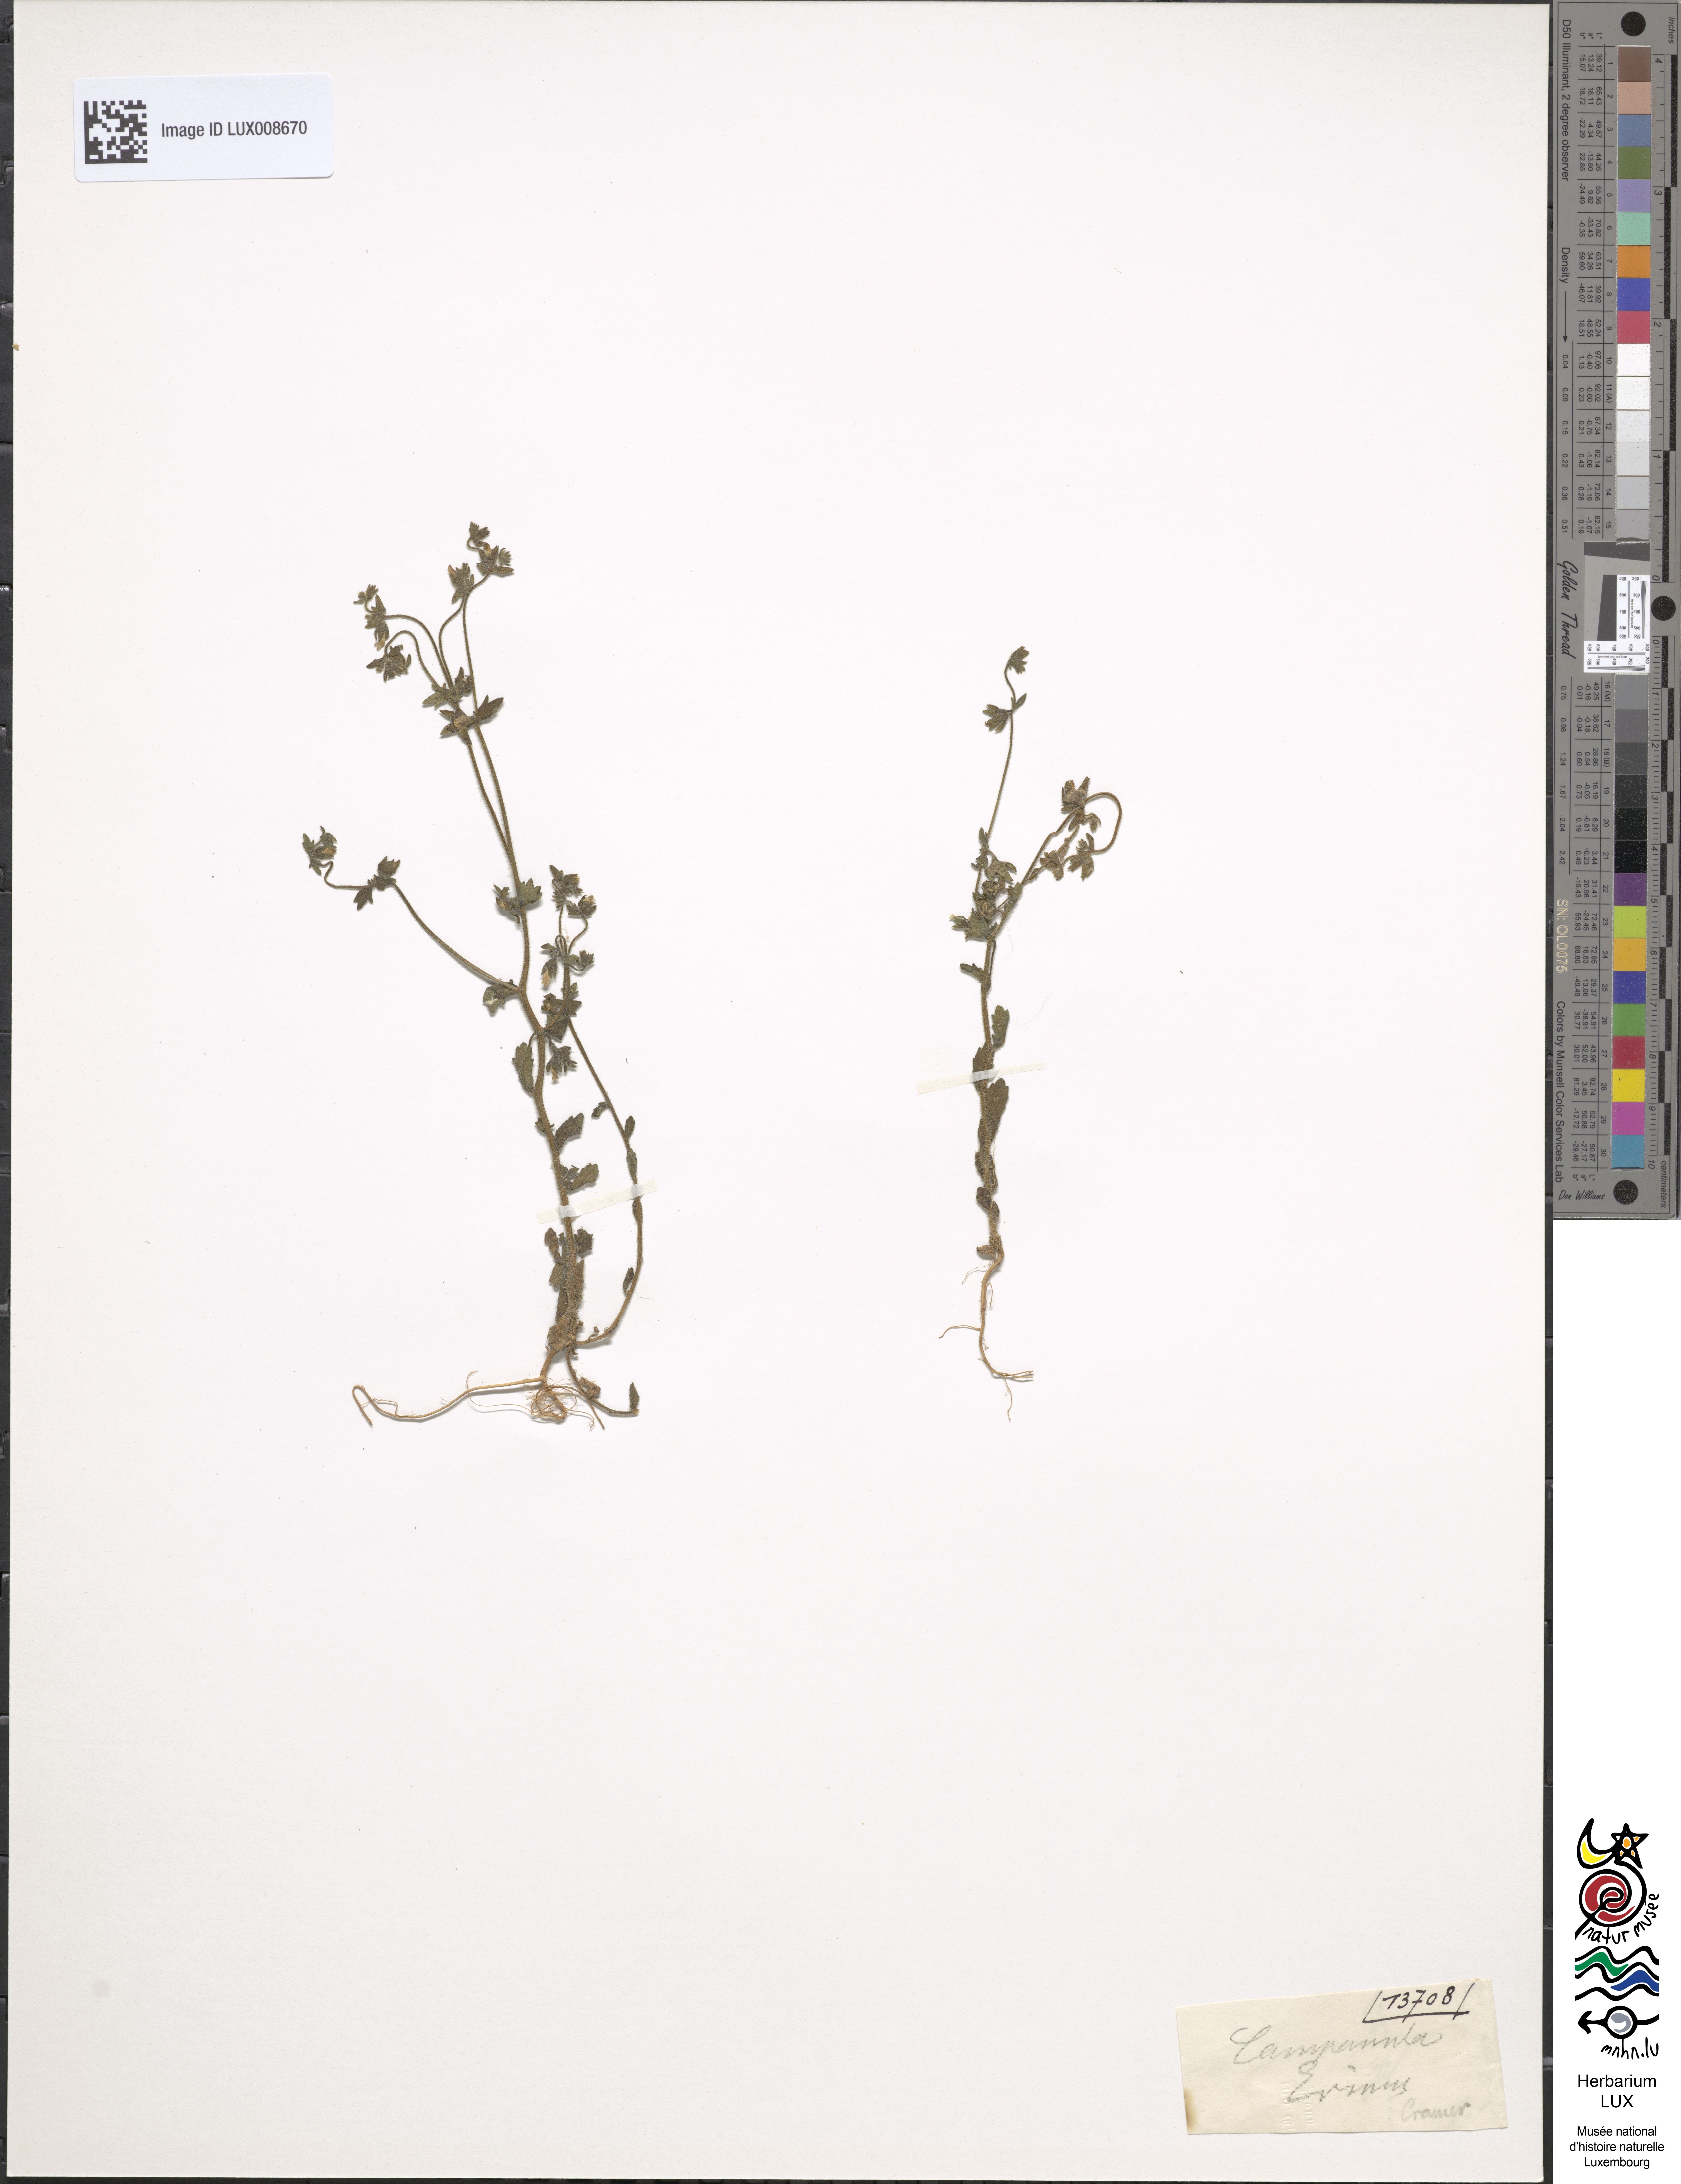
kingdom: Plantae
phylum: Tracheophyta
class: Magnoliopsida
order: Asterales
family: Campanulaceae
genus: Campanula
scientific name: Campanula erinus
